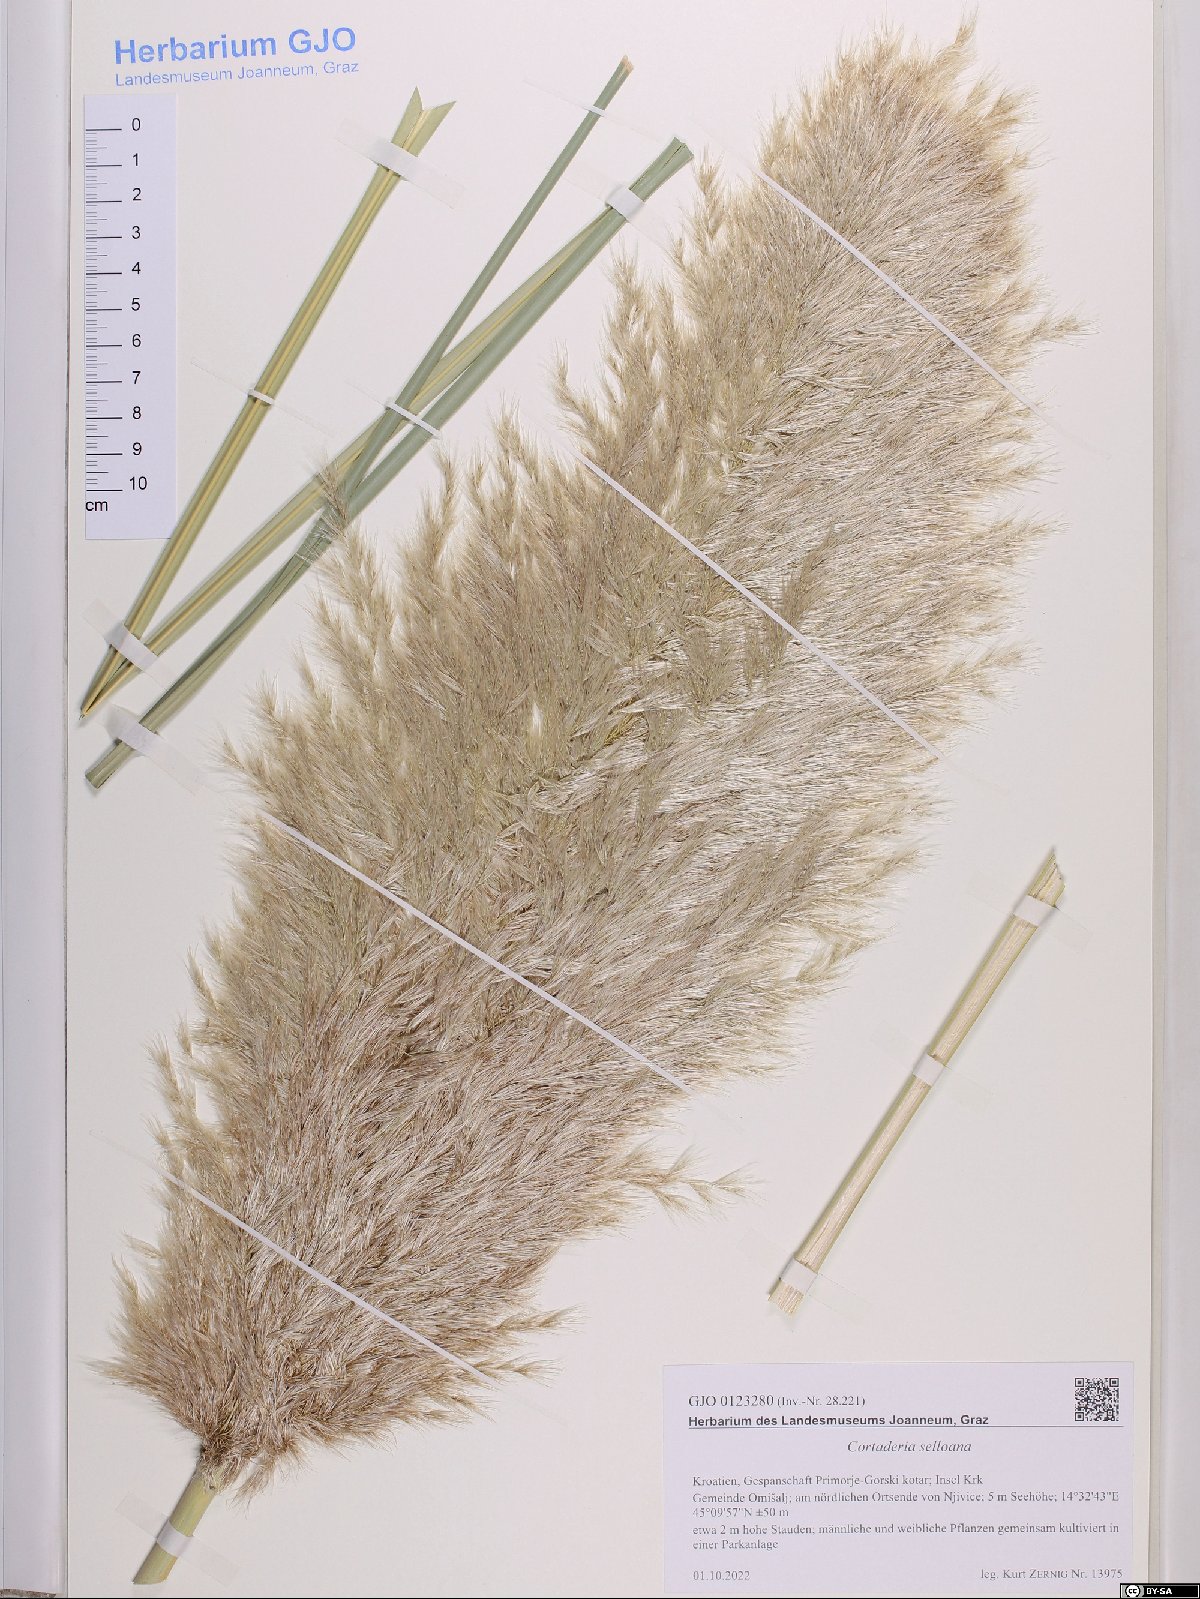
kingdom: Plantae
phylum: Tracheophyta
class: Liliopsida
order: Poales
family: Poaceae
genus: Cortaderia
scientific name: Cortaderia selloana
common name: Uruguayan pampas grass
